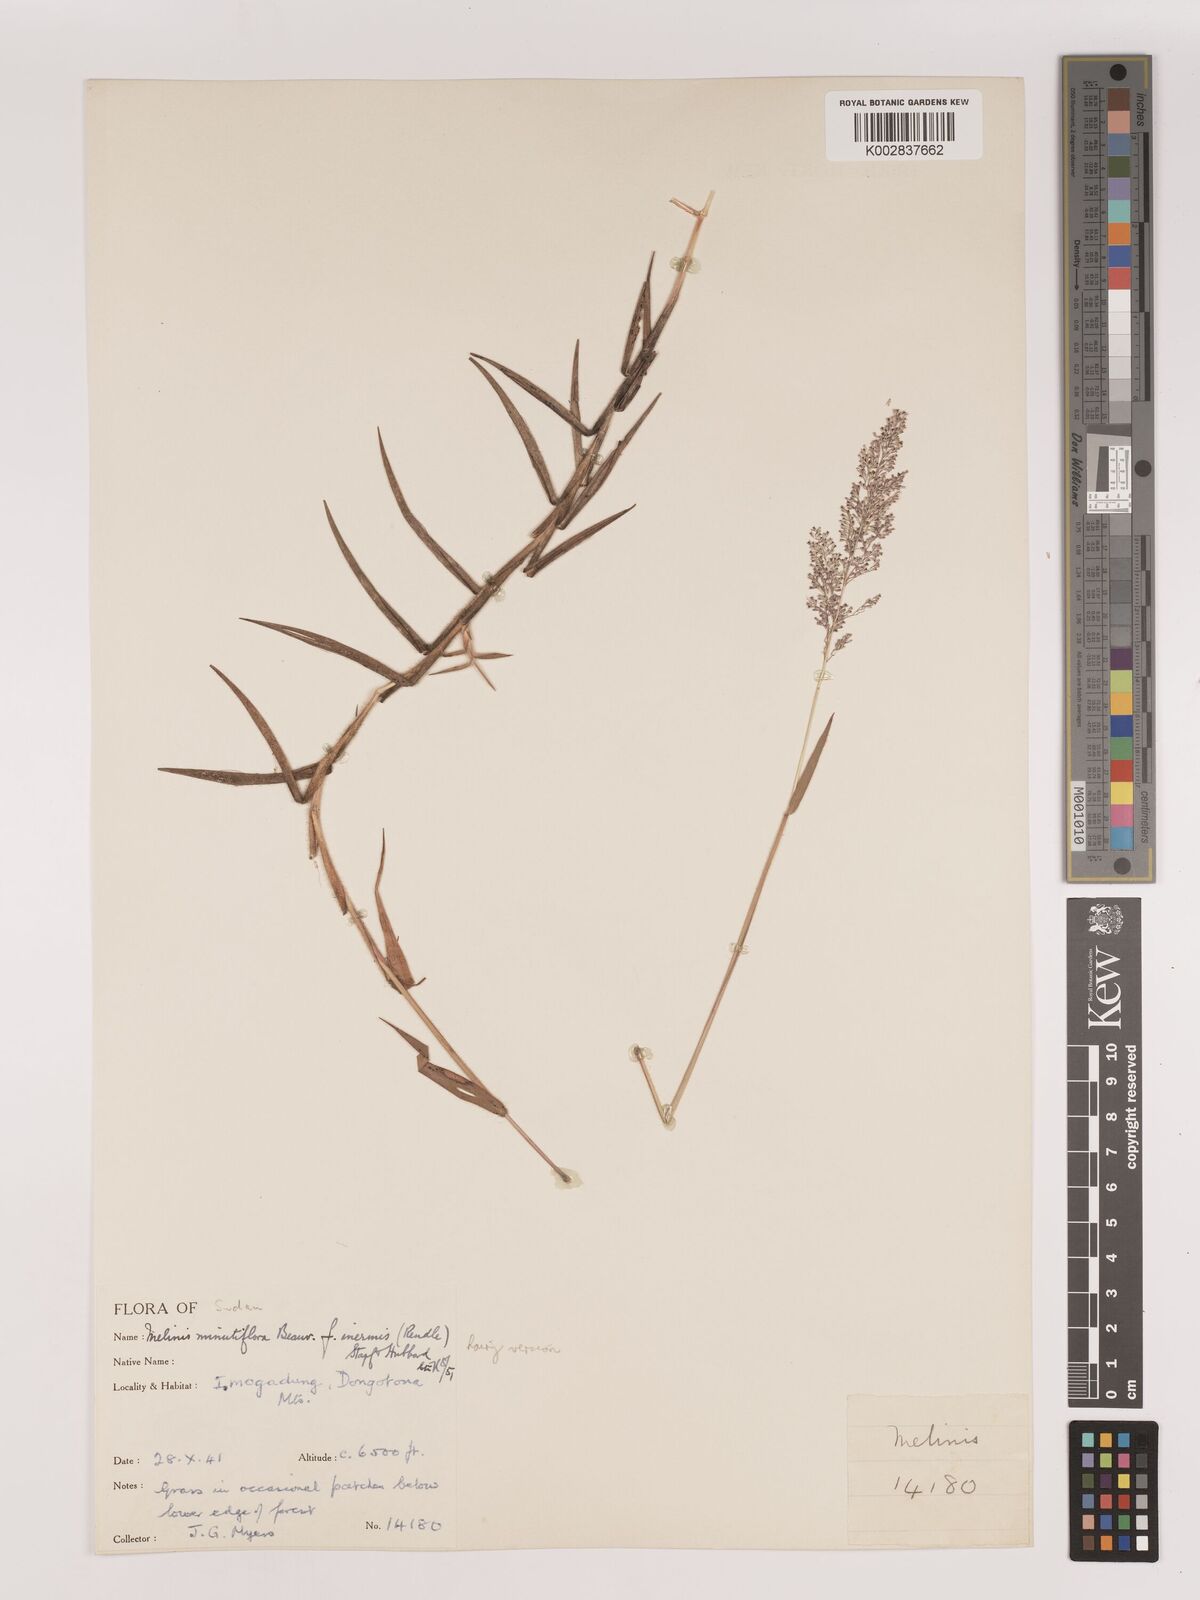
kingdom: Plantae
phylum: Tracheophyta
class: Liliopsida
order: Poales
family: Poaceae
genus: Melinis
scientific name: Melinis minutiflora
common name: Molassesgrass
